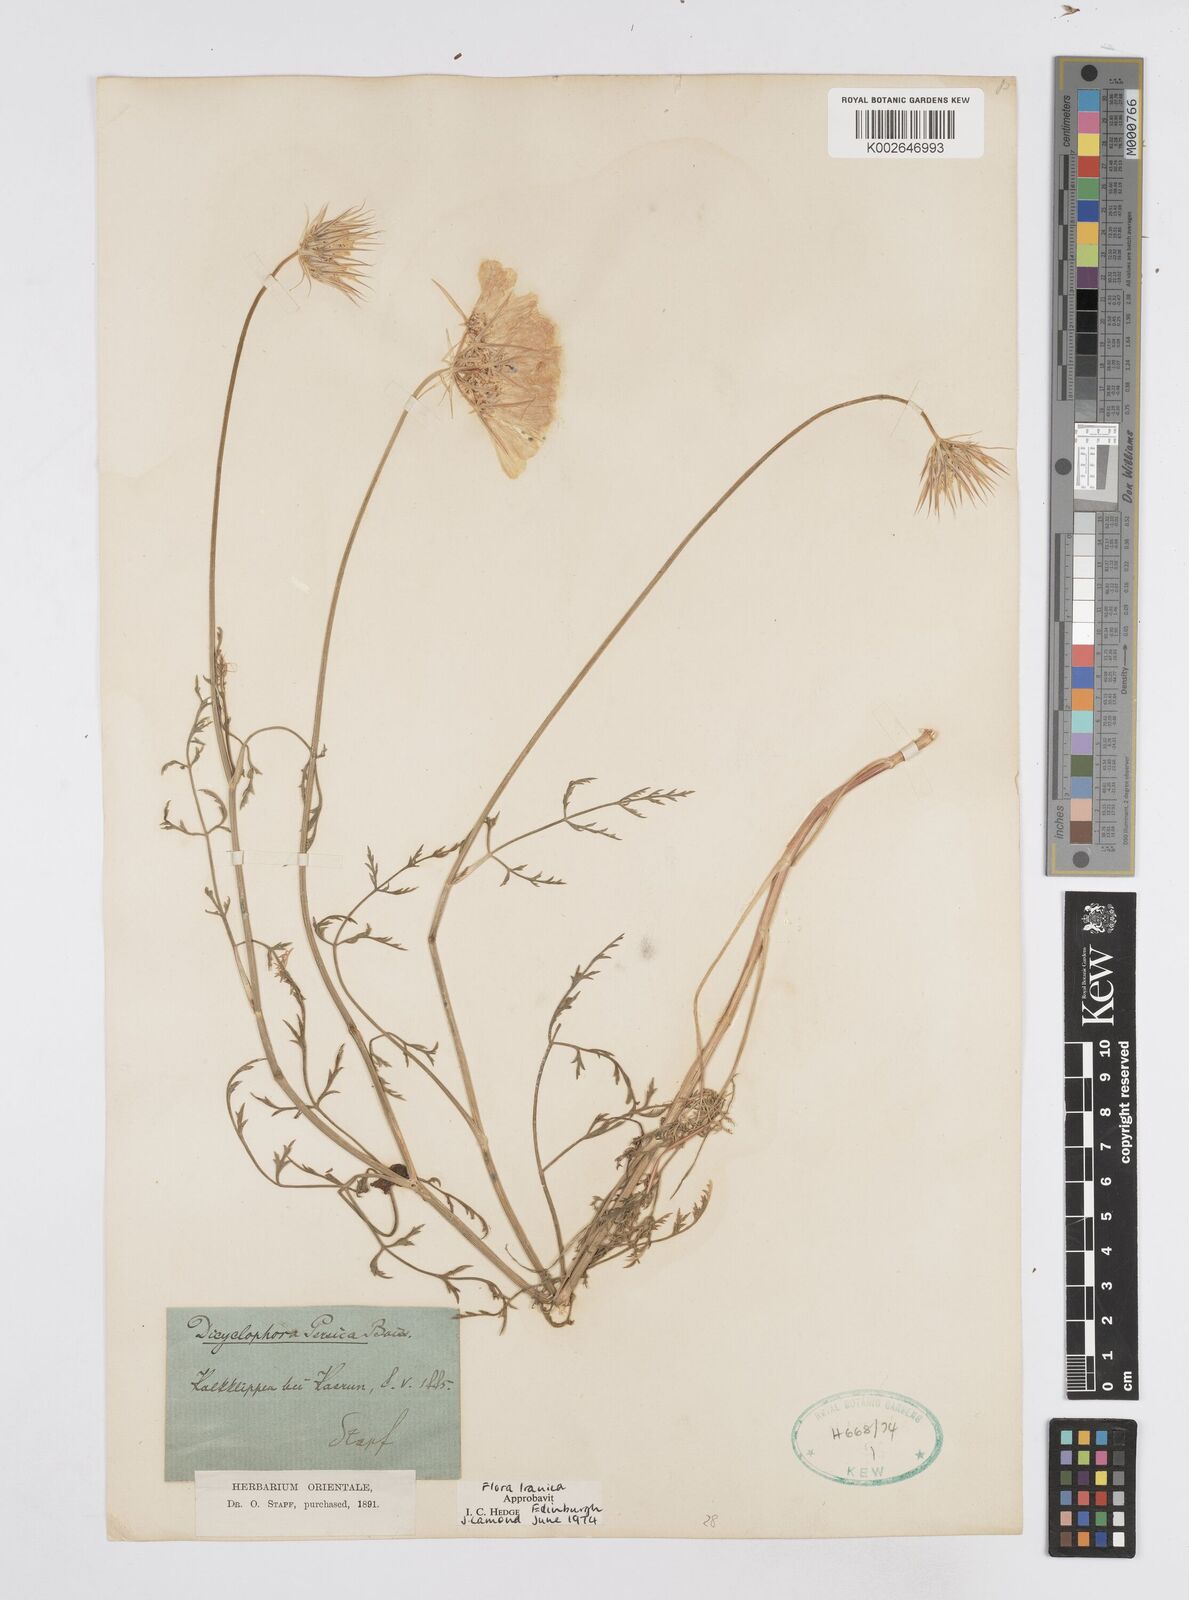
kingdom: Plantae
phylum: Tracheophyta
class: Magnoliopsida
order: Apiales
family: Apiaceae
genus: Dicyclophora
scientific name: Dicyclophora persica
